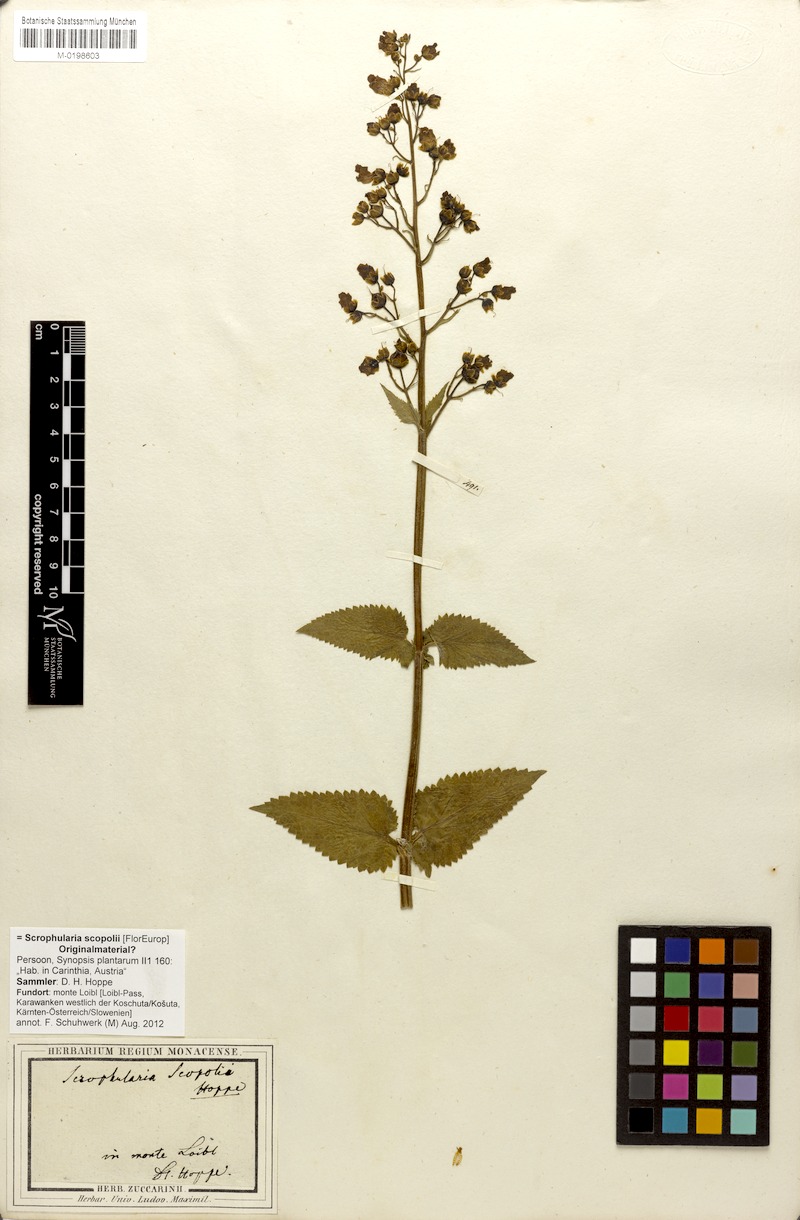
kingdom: Plantae
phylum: Tracheophyta
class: Magnoliopsida
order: Lamiales
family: Scrophulariaceae
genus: Scrophularia
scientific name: Scrophularia scopolii
